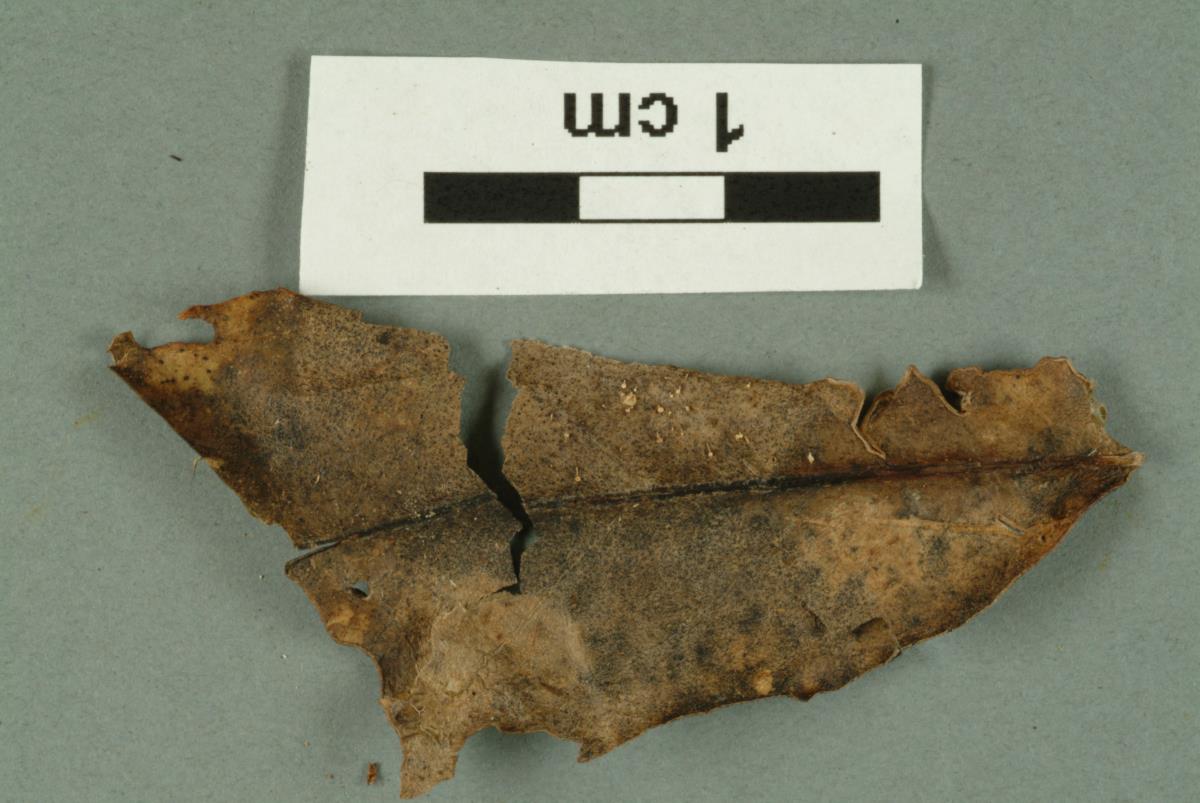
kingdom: Fungi
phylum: Basidiomycota
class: Agaricomycetes
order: Russulales
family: Stereaceae
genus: Aleurodiscus
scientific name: Aleurodiscus berggrenii
